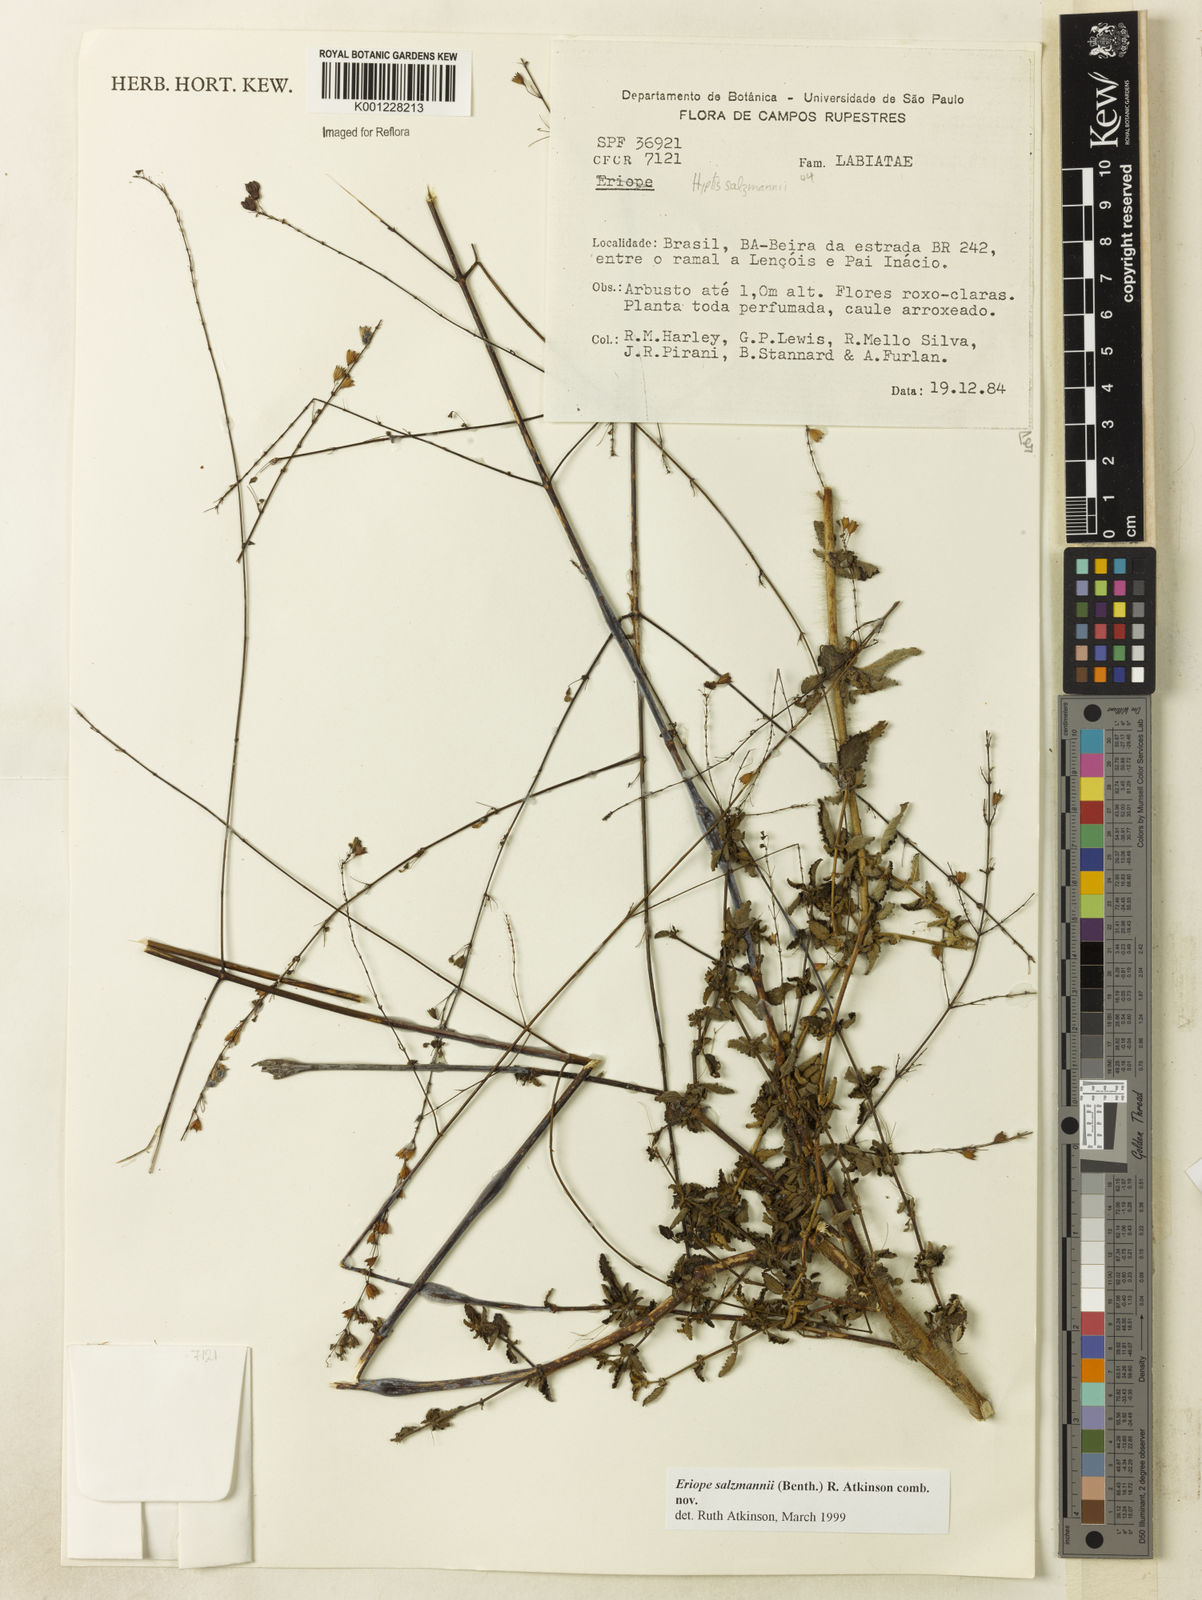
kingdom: Plantae
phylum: Tracheophyta
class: Magnoliopsida
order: Lamiales
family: Lamiaceae
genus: Hypenia
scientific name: Hypenia salzmannii
